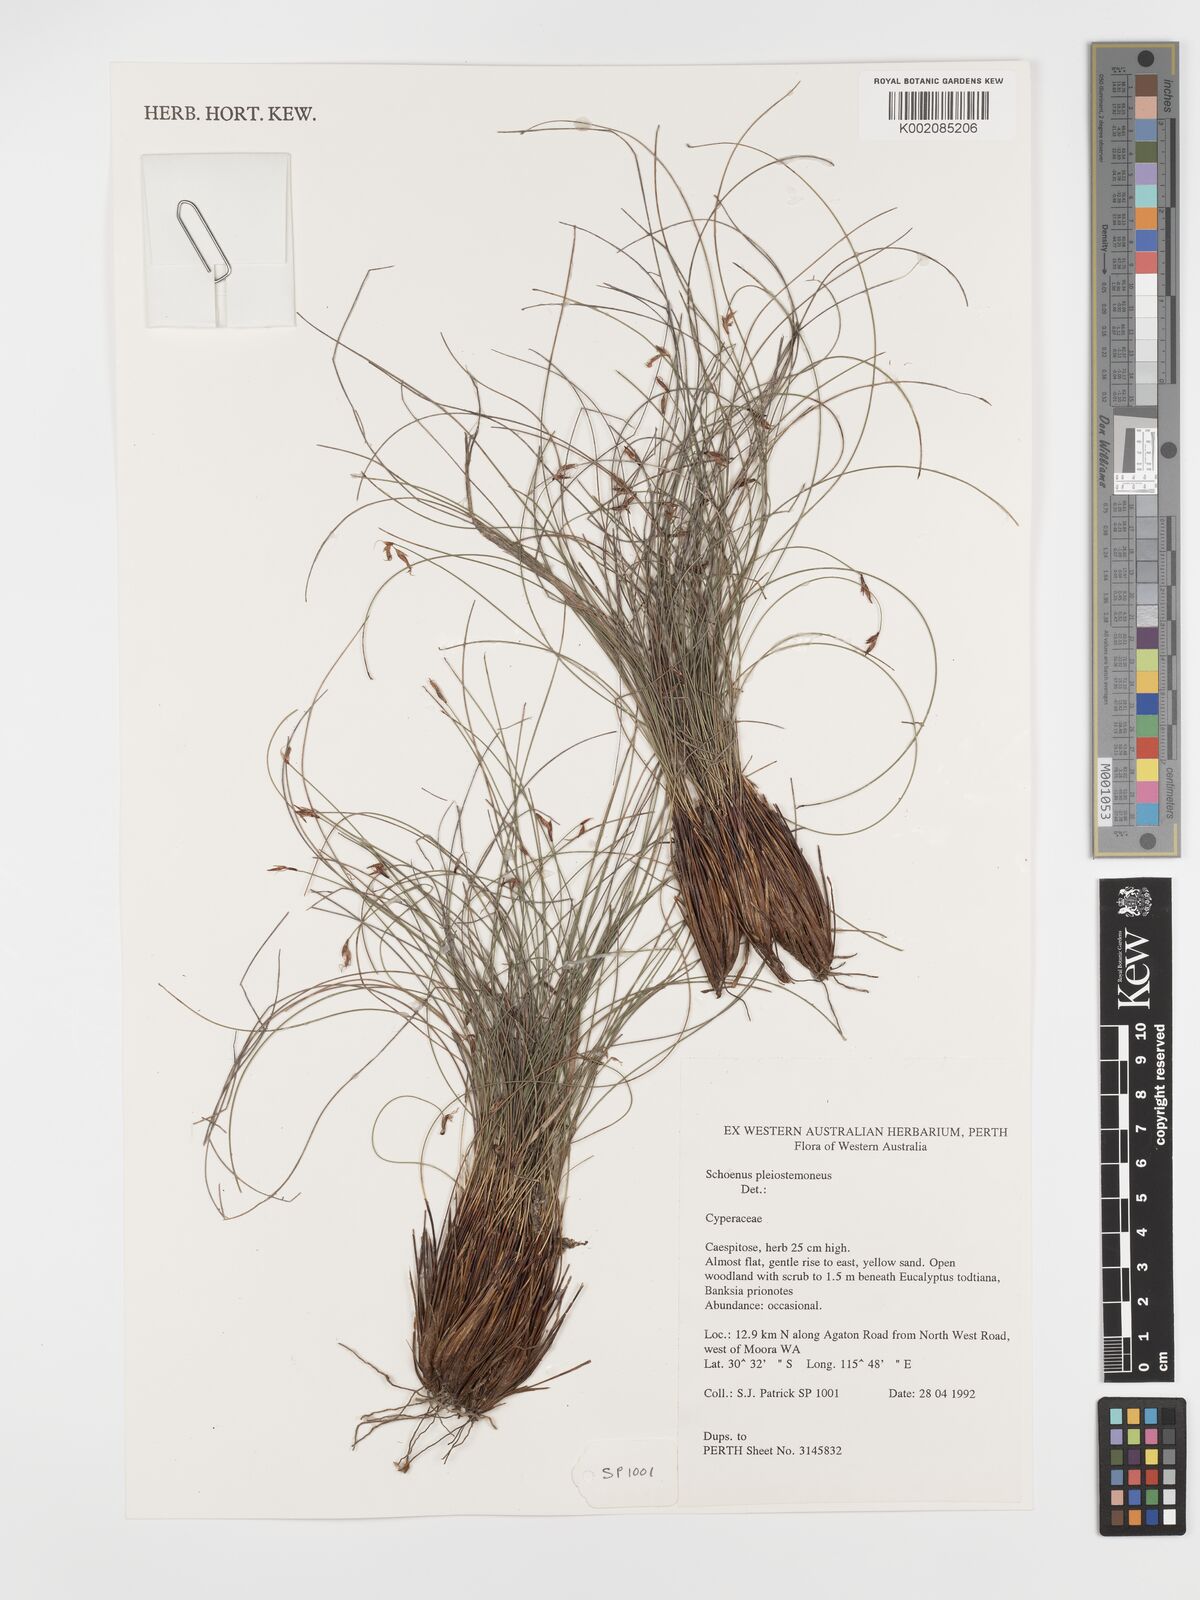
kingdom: Plantae
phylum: Tracheophyta
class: Liliopsida
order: Poales
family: Cyperaceae
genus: Schoenus
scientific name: Schoenus pleiostemoneus
